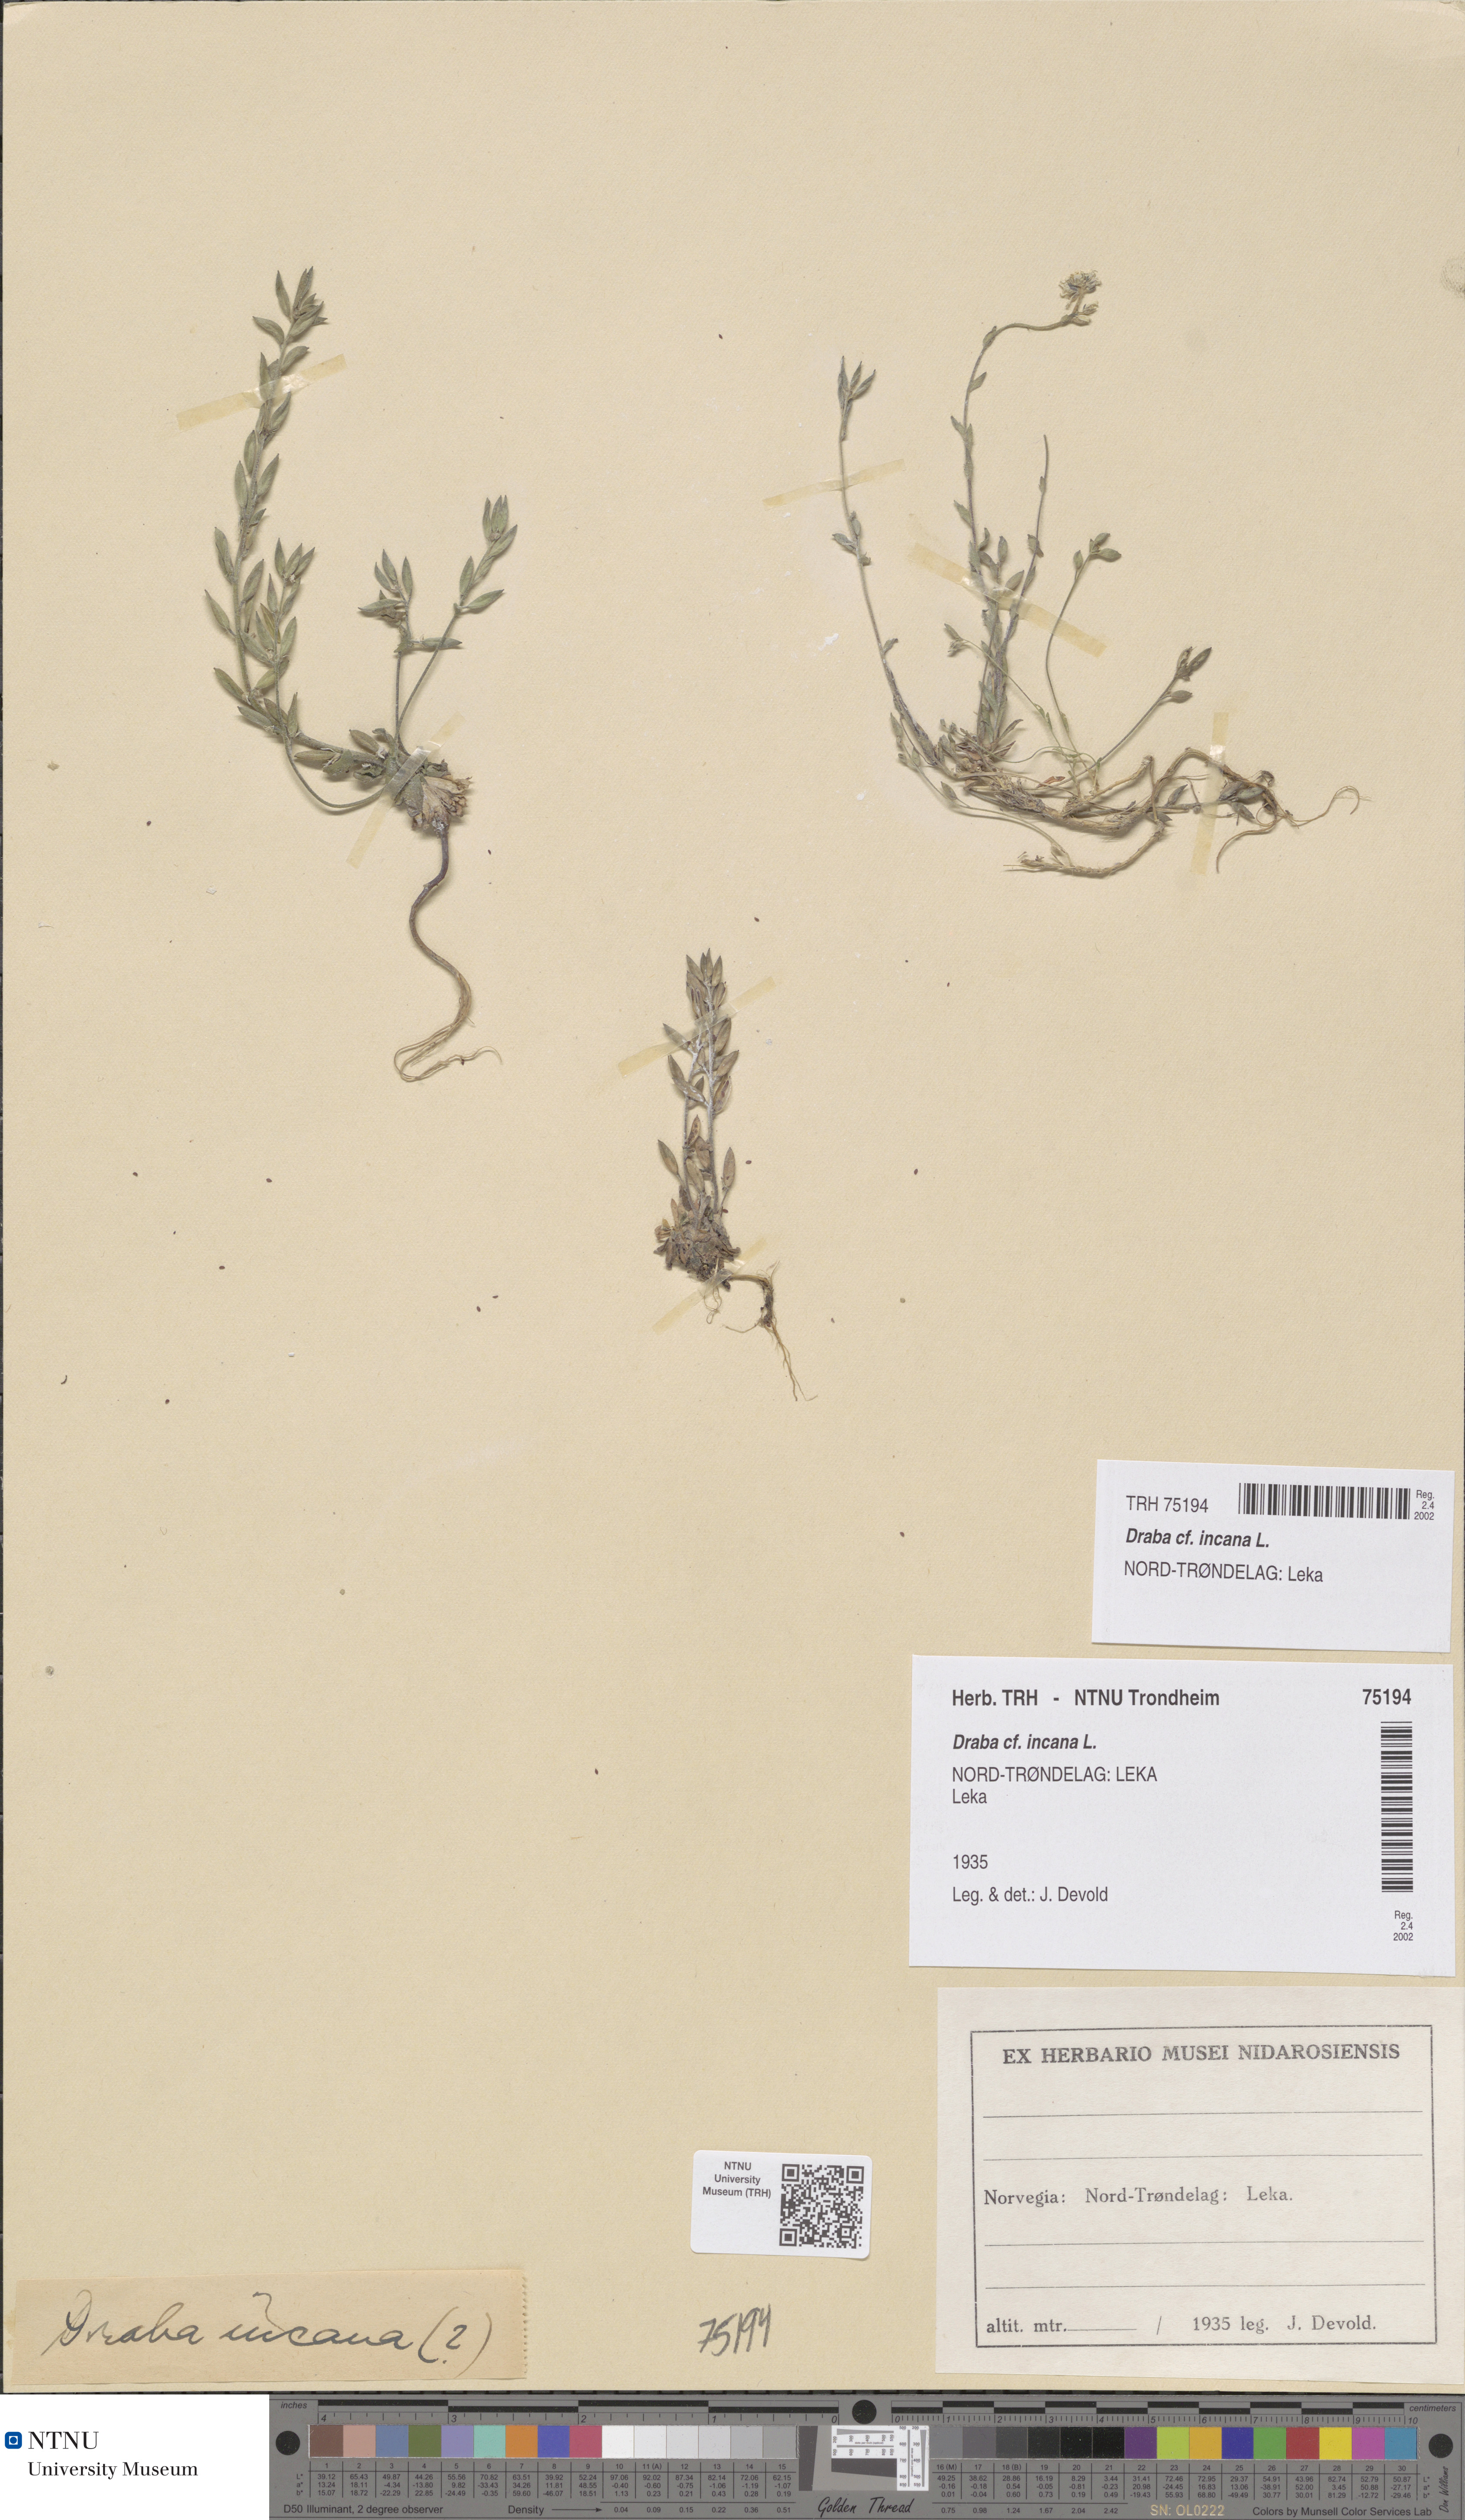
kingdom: Plantae
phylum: Tracheophyta
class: Magnoliopsida
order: Brassicales
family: Brassicaceae
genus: Draba
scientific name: Draba incana
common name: Hoary whitlow-grass
